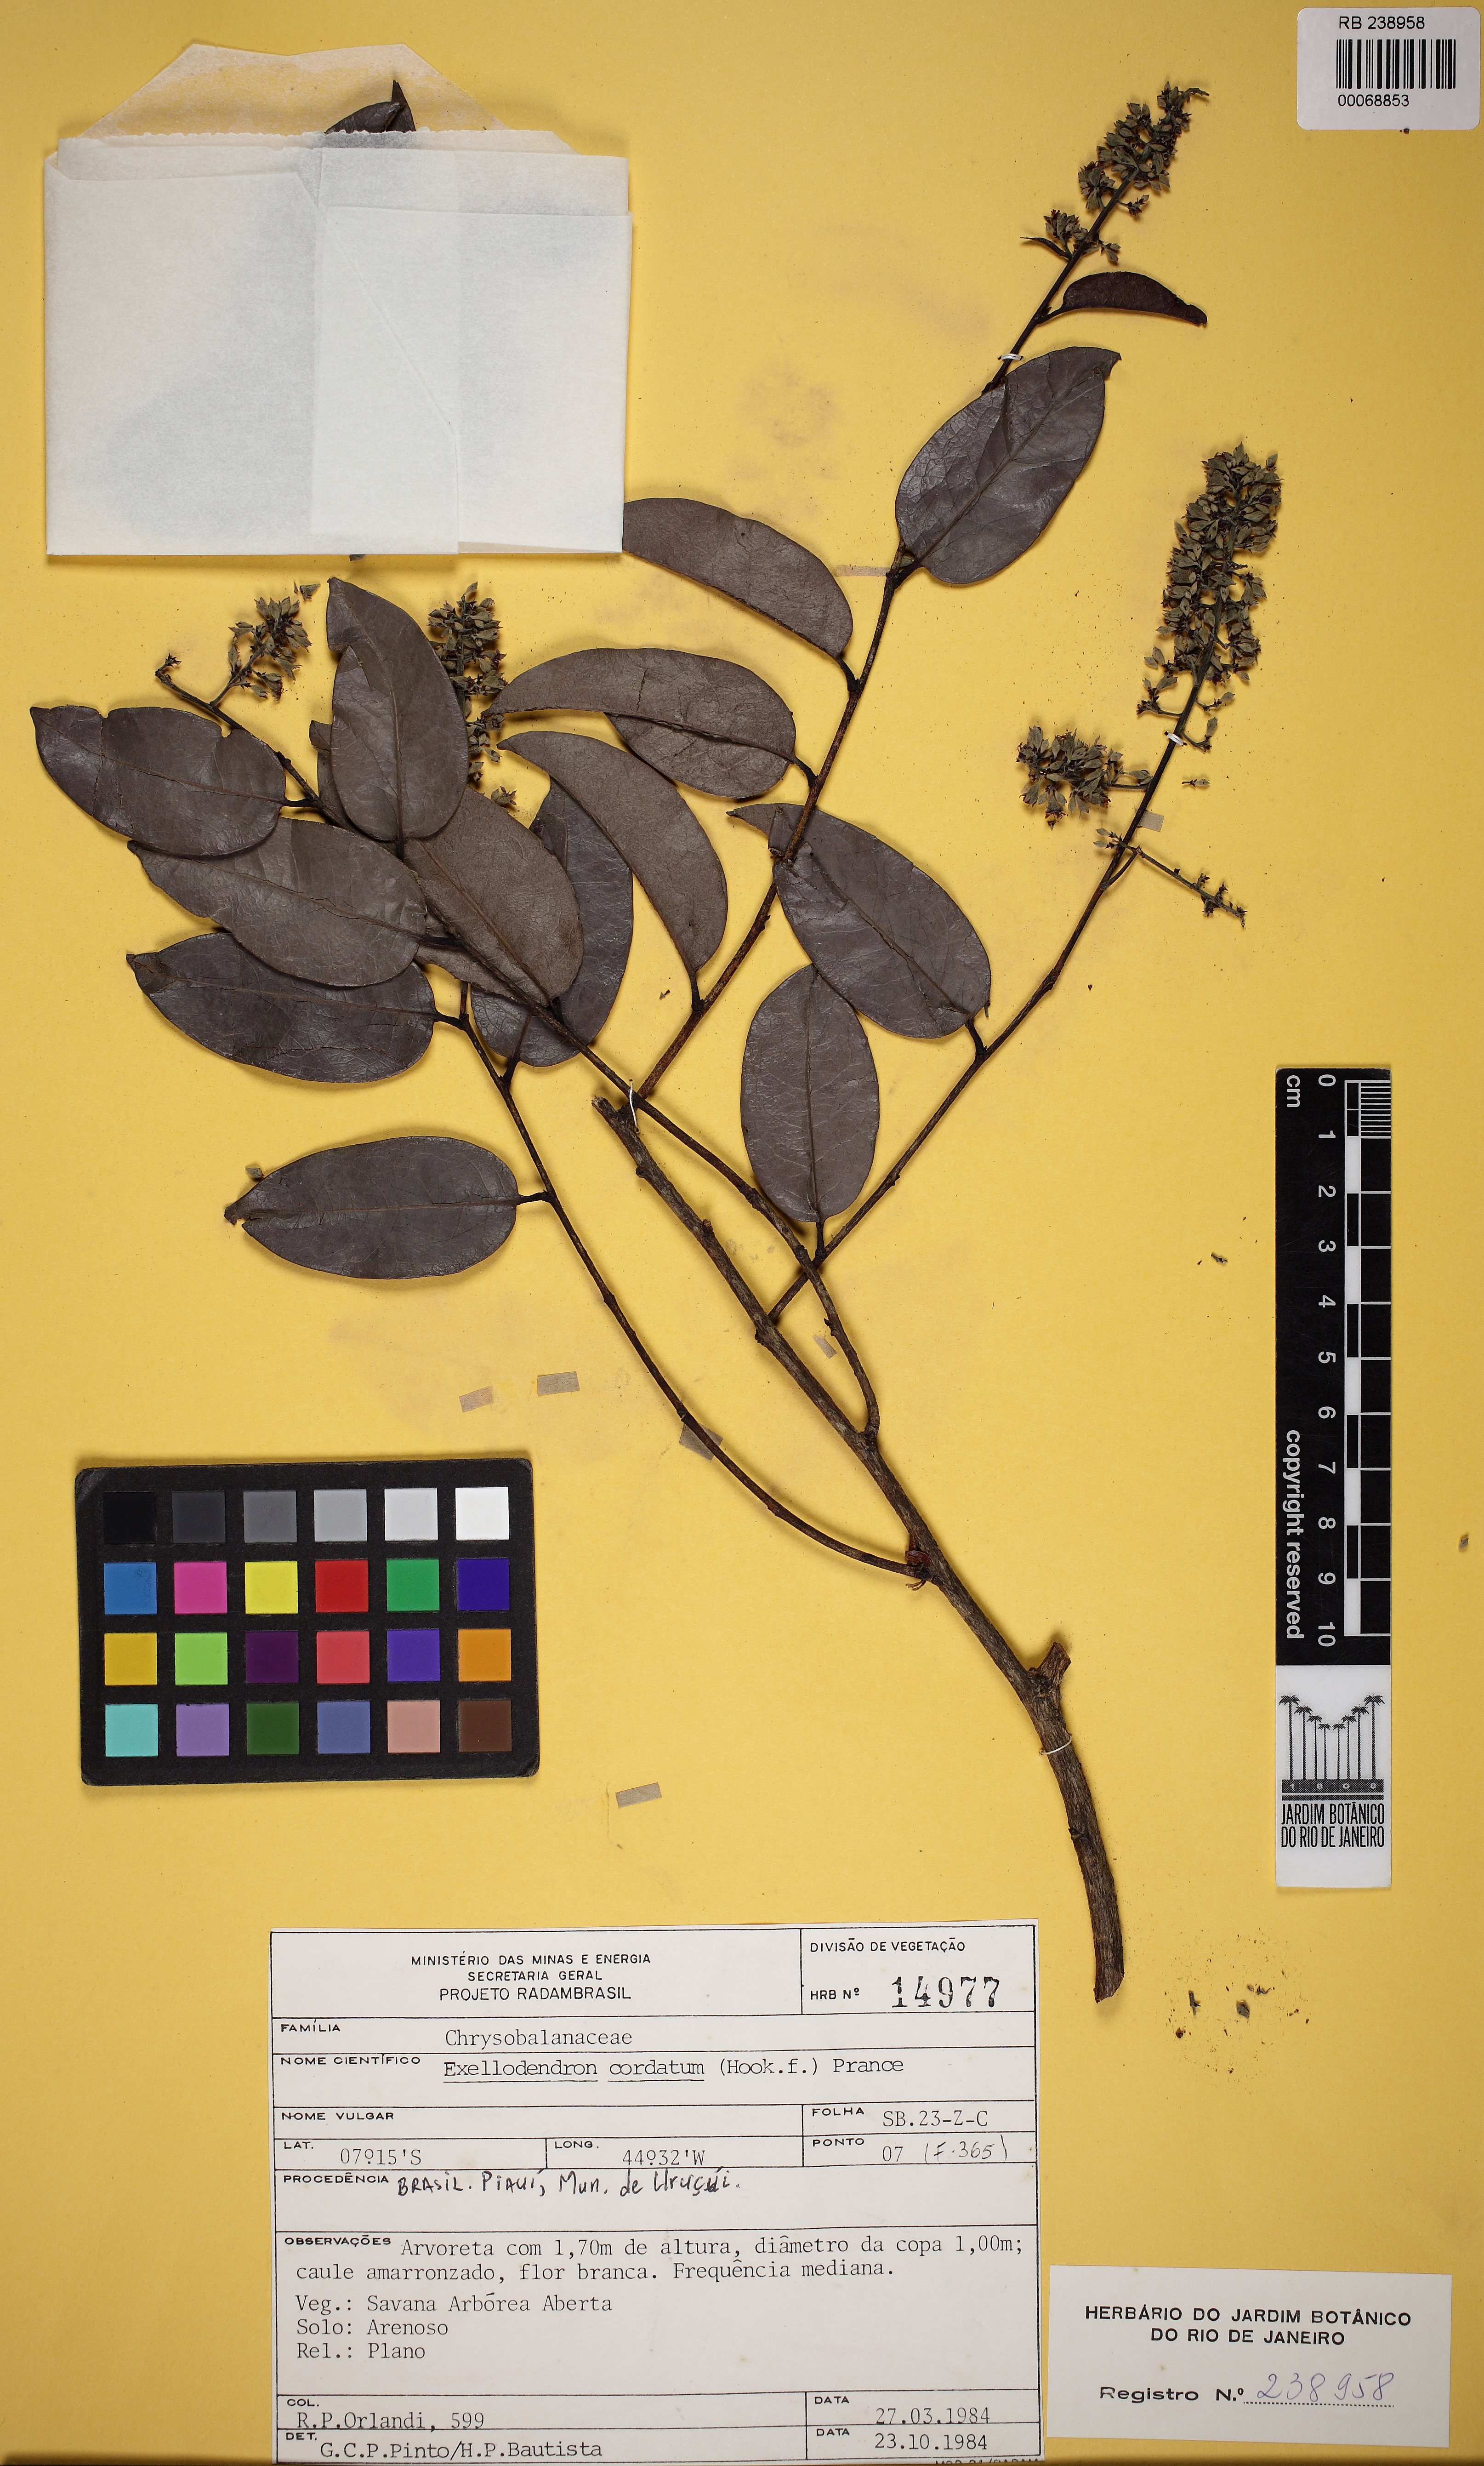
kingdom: Plantae
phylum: Tracheophyta
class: Magnoliopsida
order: Malpighiales
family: Chrysobalanaceae
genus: Exellodendron
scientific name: Exellodendron cordatum
